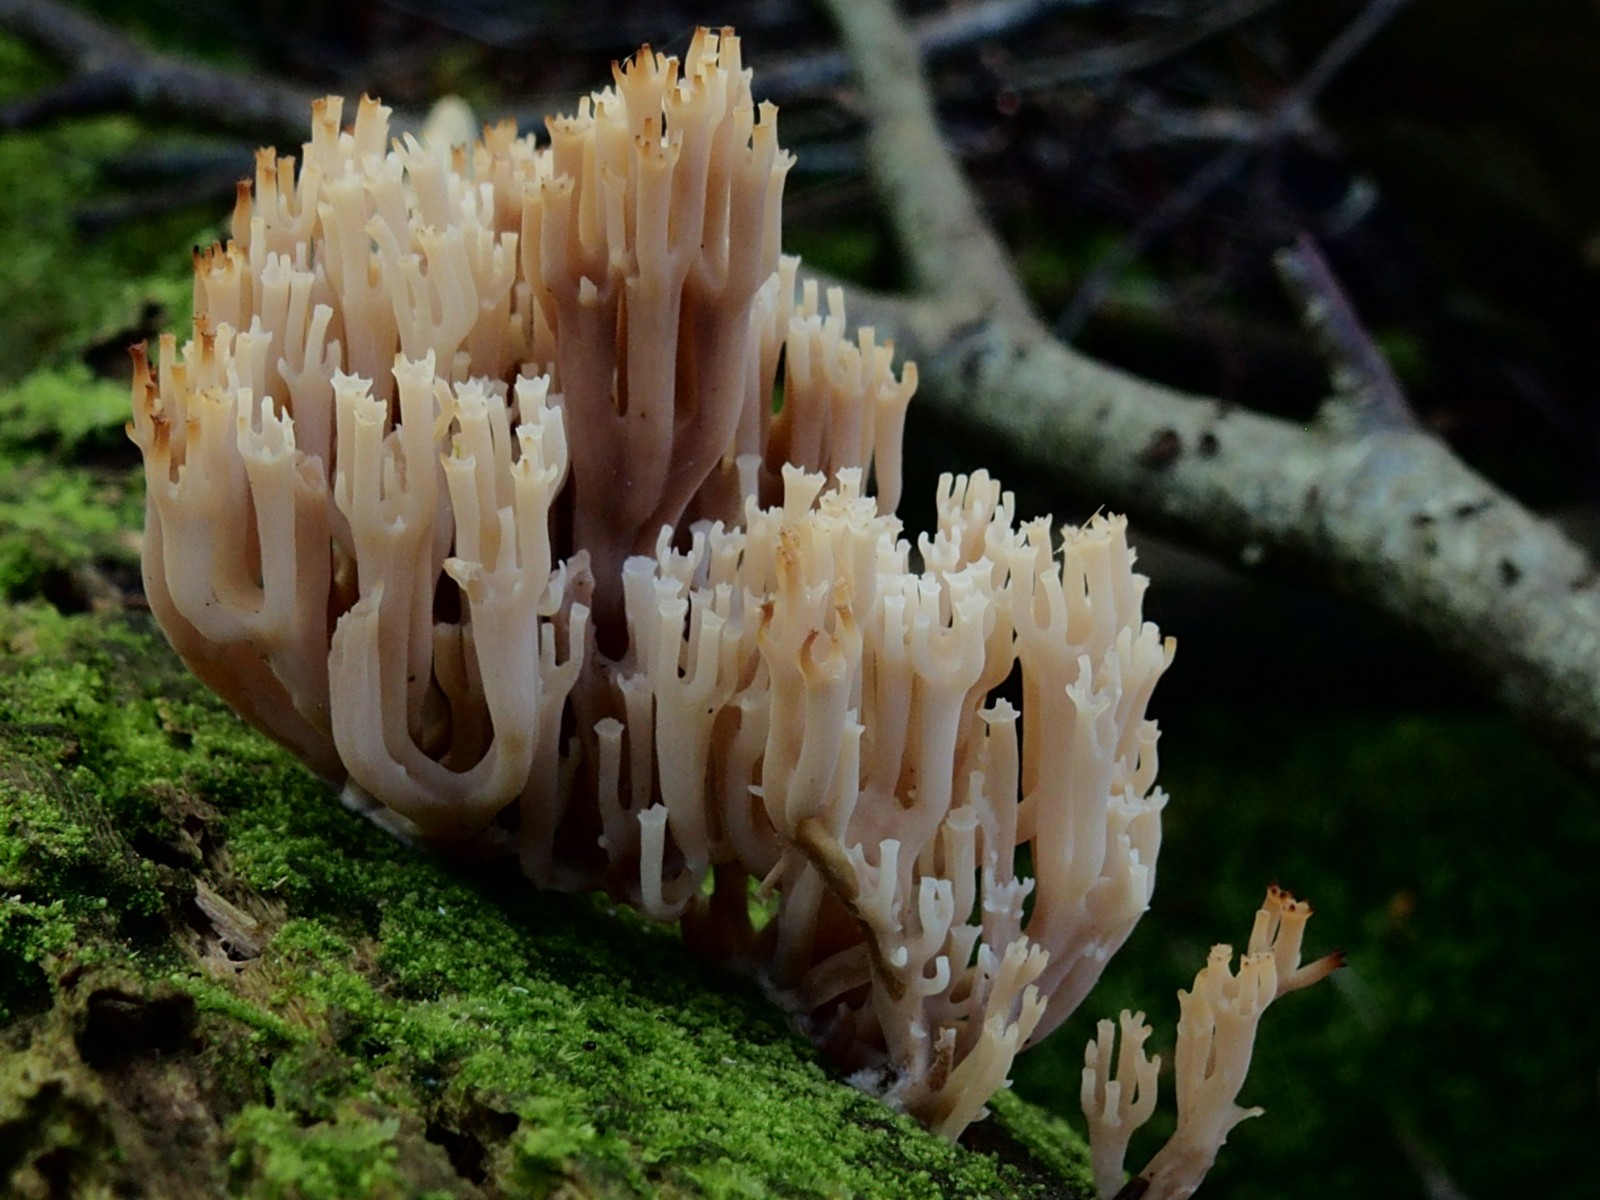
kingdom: Fungi
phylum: Basidiomycota
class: Agaricomycetes
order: Russulales
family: Auriscalpiaceae
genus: Artomyces
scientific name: Artomyces pyxidatus
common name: kandelabersvamp
